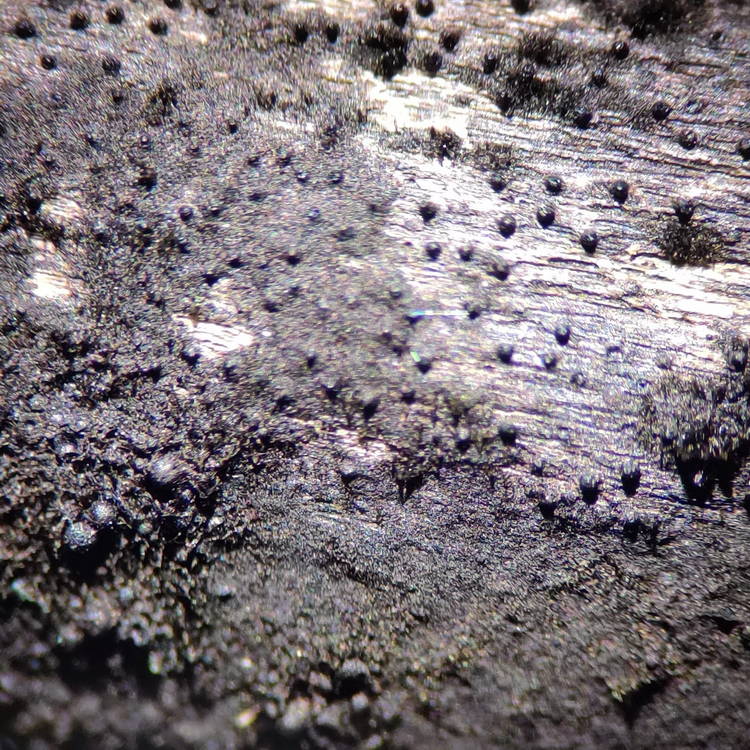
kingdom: Fungi
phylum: Ascomycota
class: Sordariomycetes
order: Coronophorales
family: Chaetosphaerellaceae
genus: Chaetosphaerella
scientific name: Chaetosphaerella phaeostroma
